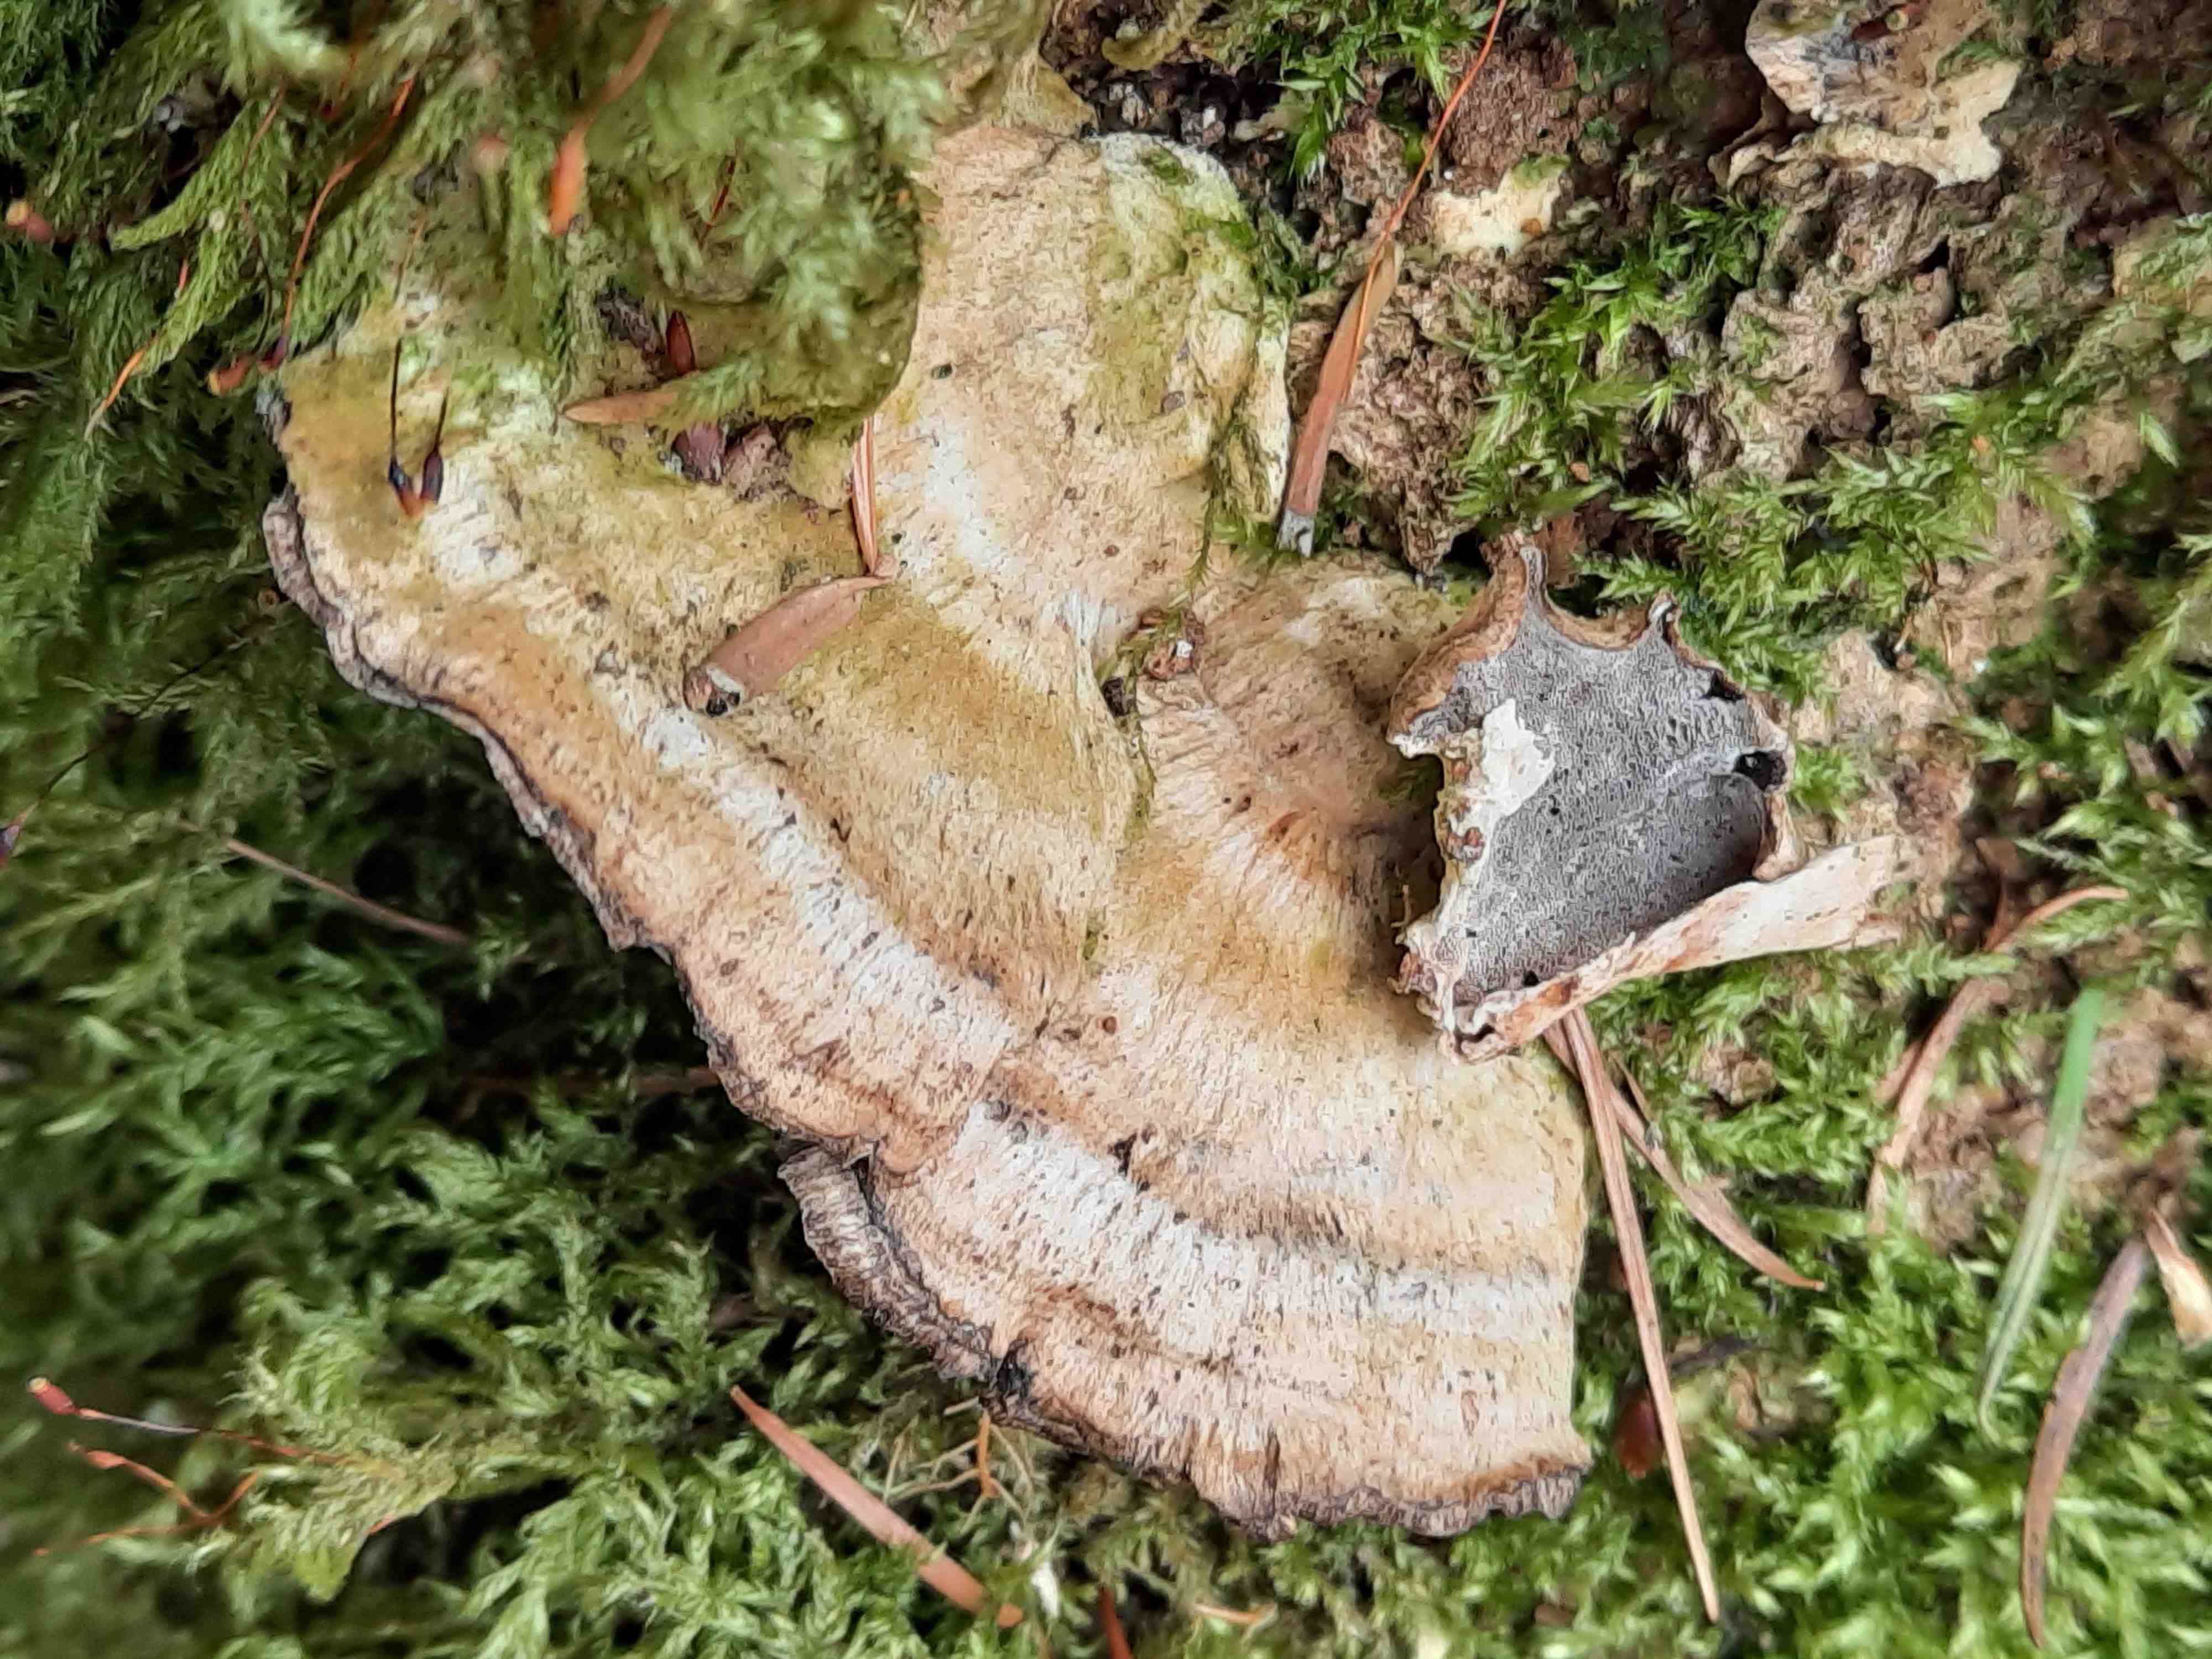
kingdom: Fungi
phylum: Basidiomycota
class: Agaricomycetes
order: Polyporales
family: Phanerochaetaceae
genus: Bjerkandera
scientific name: Bjerkandera adusta
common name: sveden sodporesvamp
